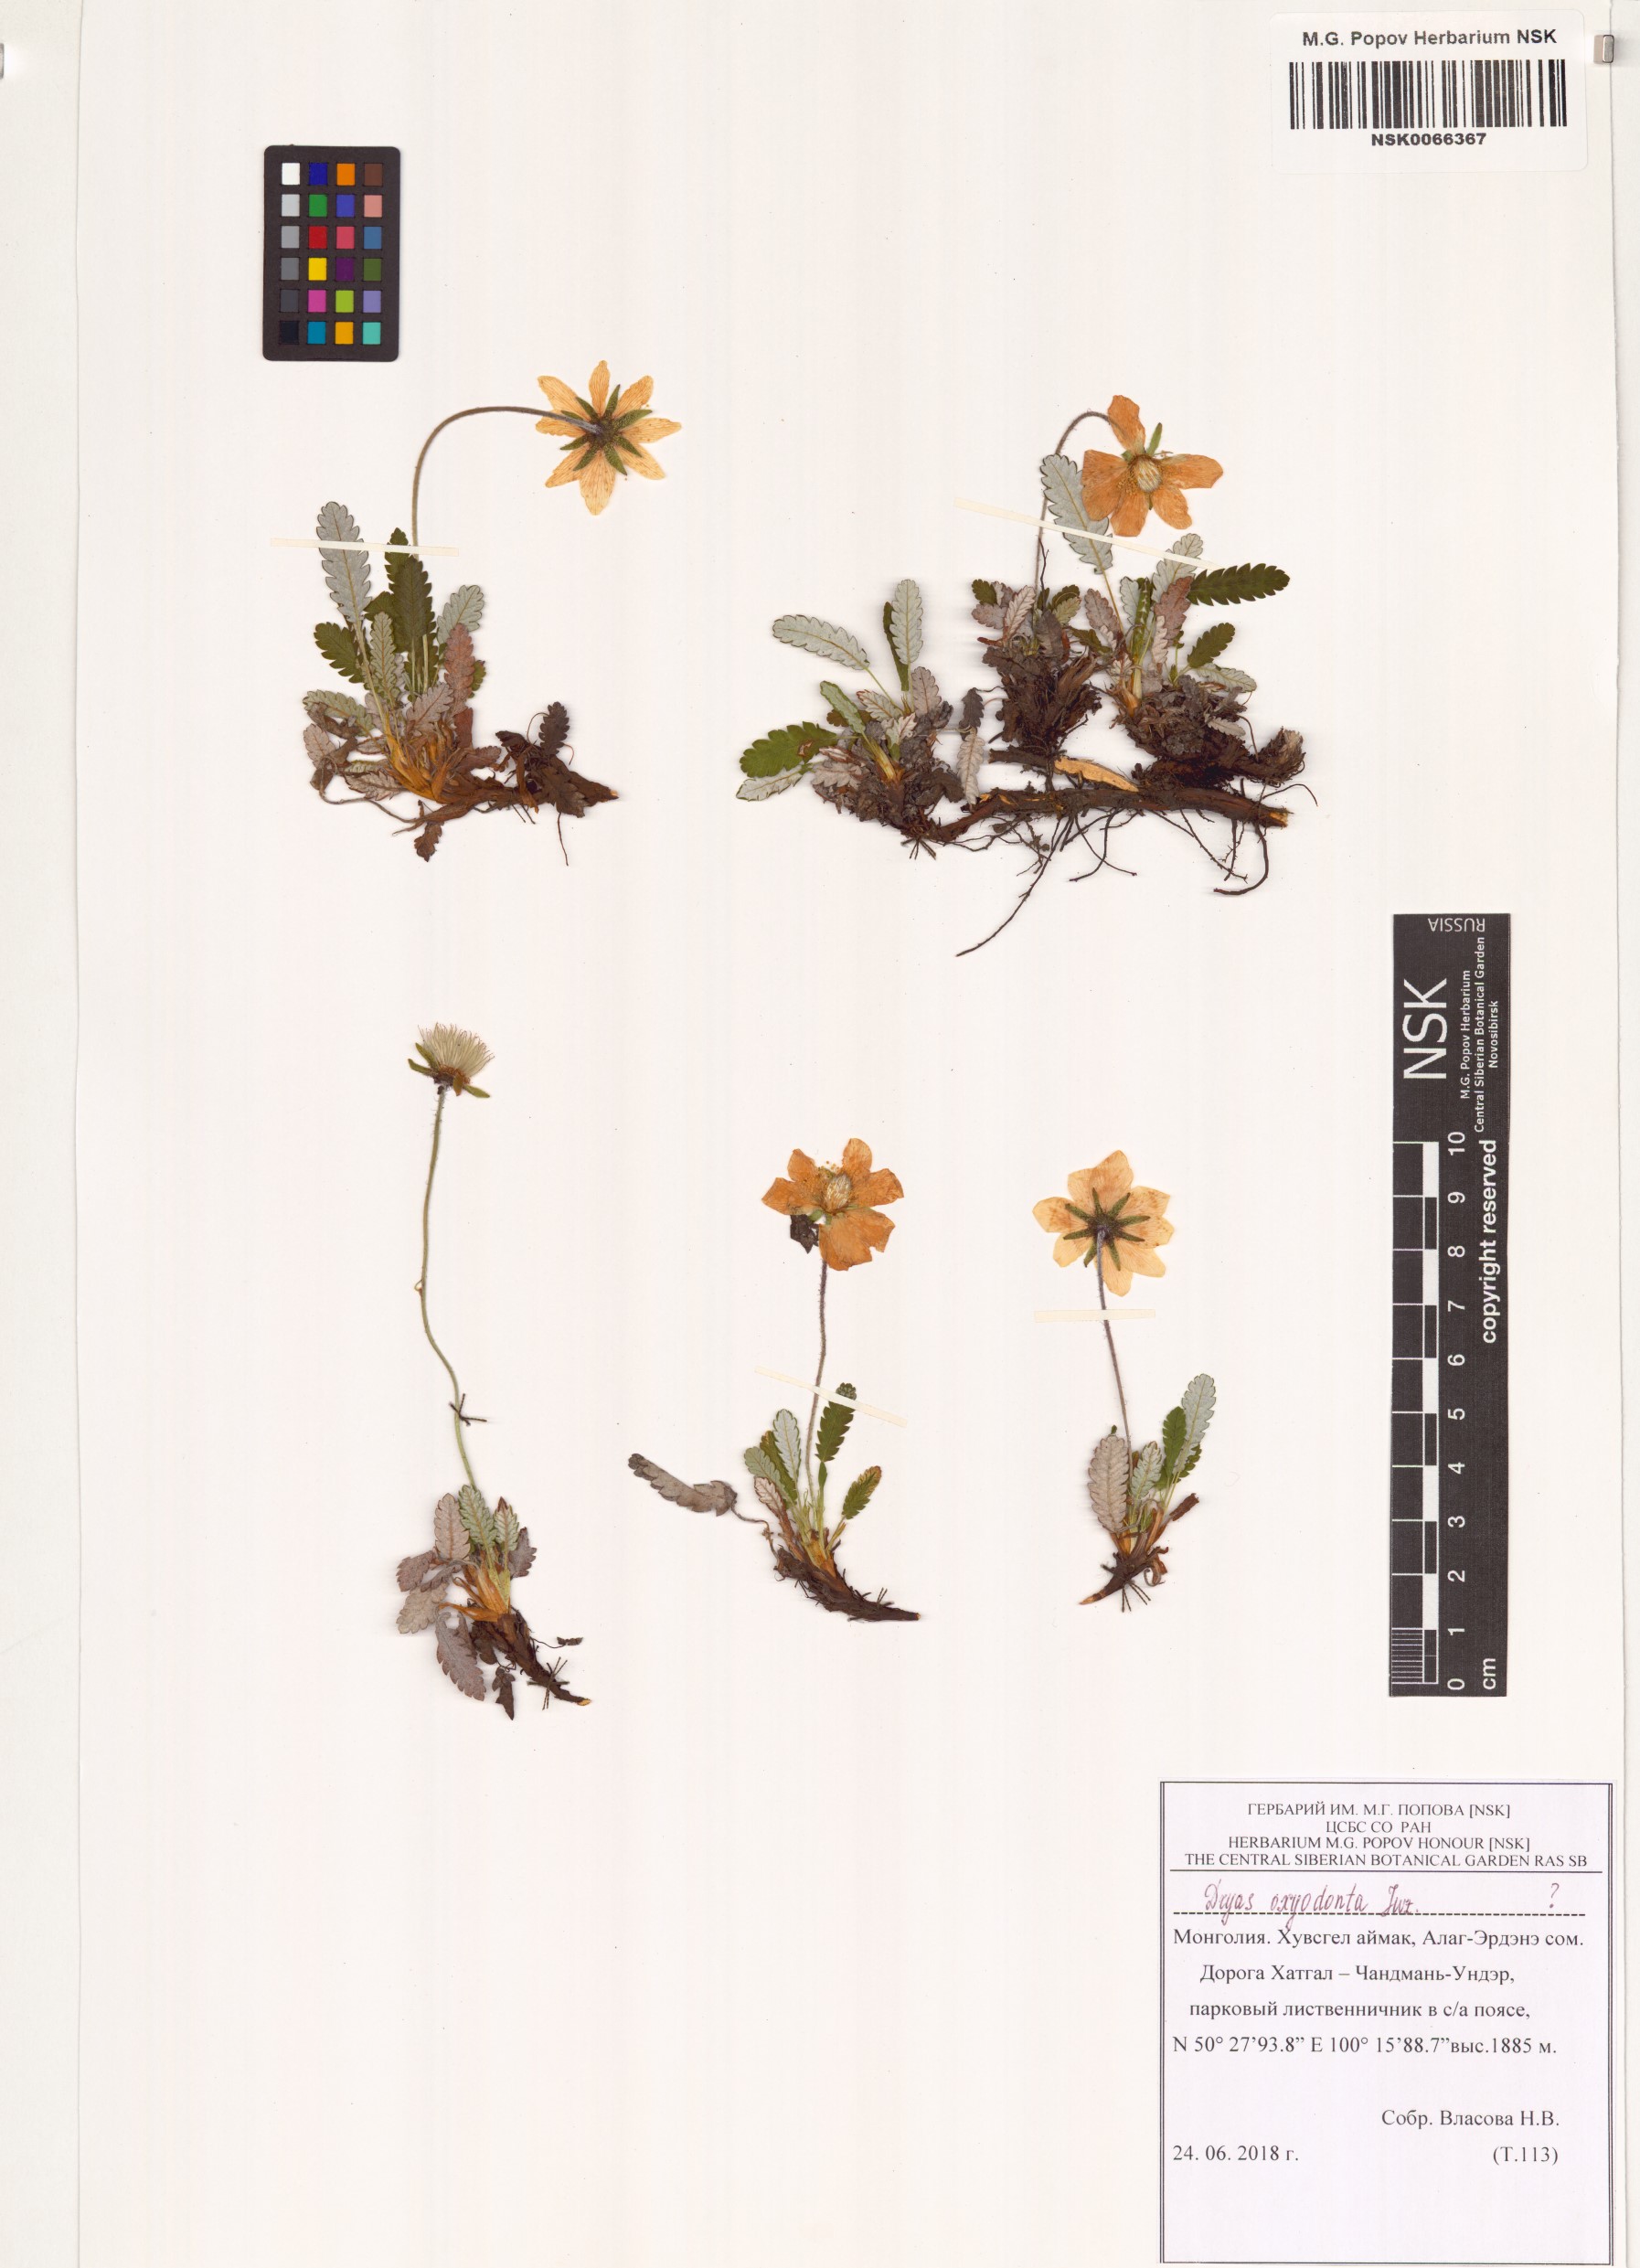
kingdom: Plantae
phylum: Tracheophyta
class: Magnoliopsida
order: Rosales
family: Rosaceae
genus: Dryas
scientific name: Dryas octopetala
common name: Eight-petal mountain-avens
